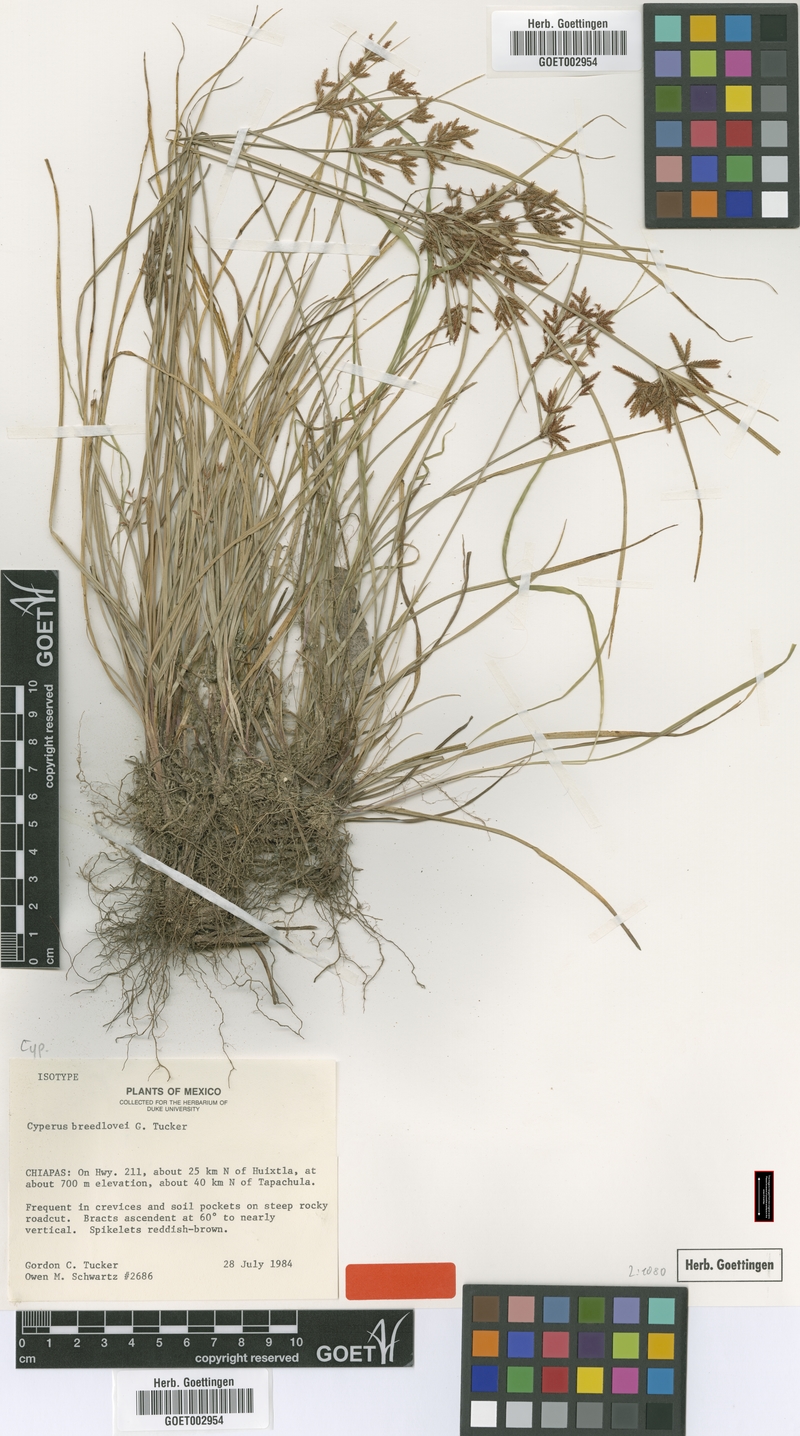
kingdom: Plantae
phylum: Tracheophyta
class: Liliopsida
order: Poales
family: Cyperaceae
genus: Cyperus
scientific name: Cyperus breedlovei
